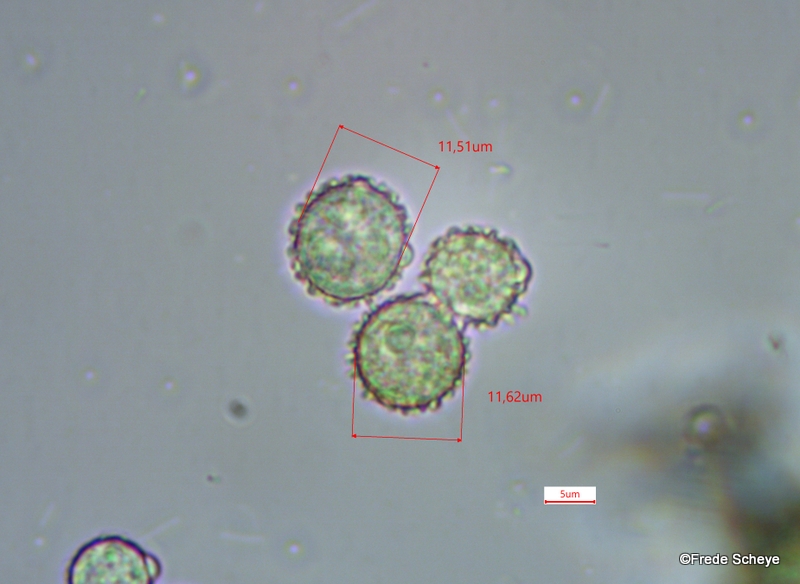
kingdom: Fungi
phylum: Ascomycota
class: Sordariomycetes
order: Hypocreales
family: Hypocreaceae
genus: Hypomyces
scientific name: Hypomyces microspermus
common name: dværgrørhat-snylteskorpe
